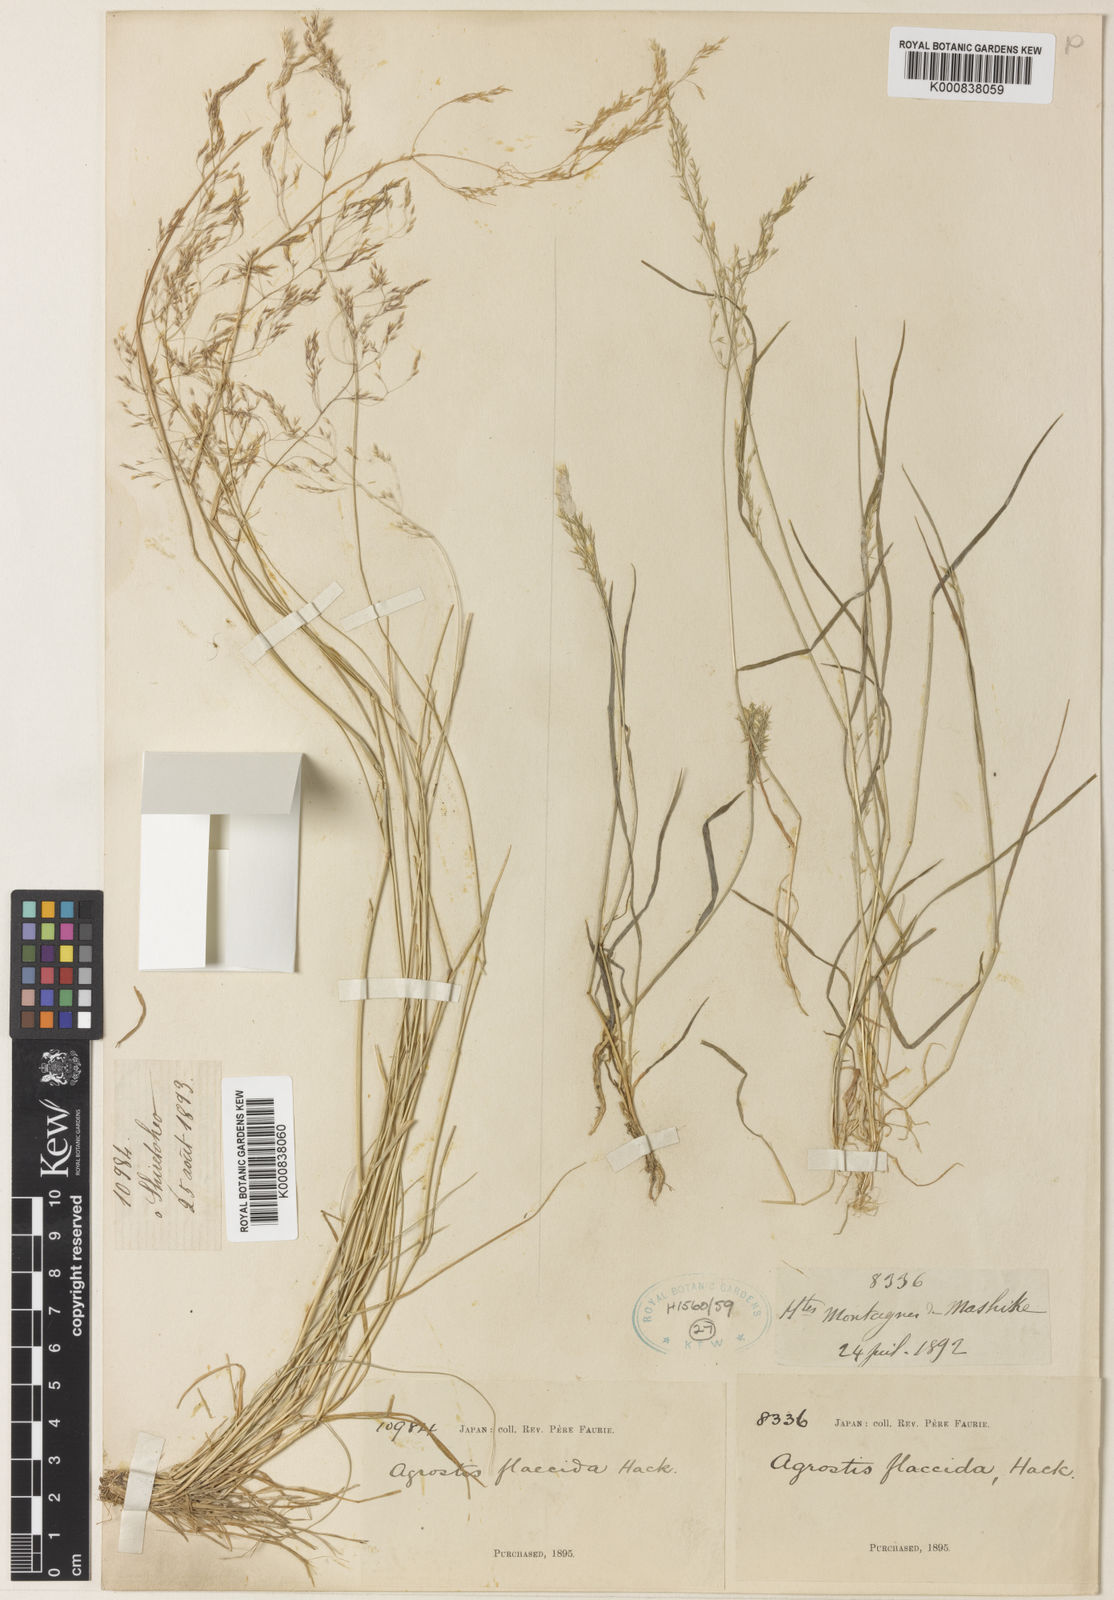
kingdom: Plantae
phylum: Tracheophyta
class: Liliopsida
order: Poales
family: Poaceae
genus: Agrostis
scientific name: Agrostis flaccida
